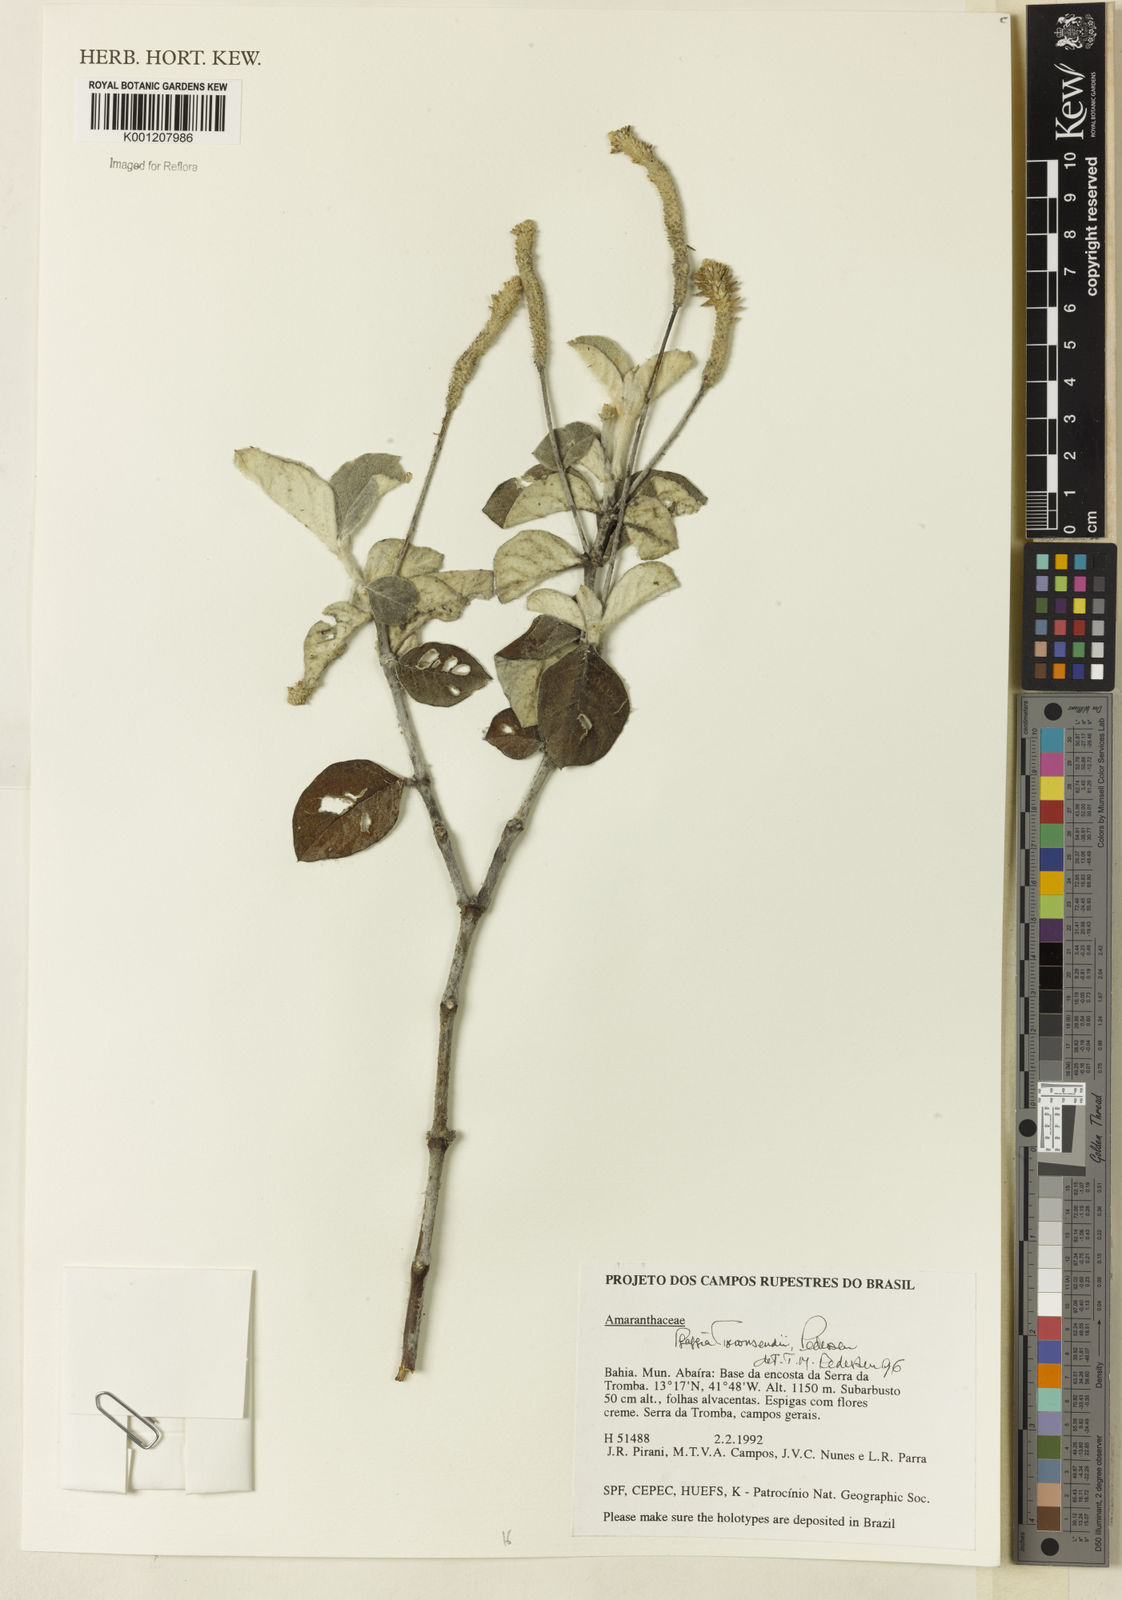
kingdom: Plantae
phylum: Tracheophyta
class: Magnoliopsida
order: Caryophyllales
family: Amaranthaceae
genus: Pfaffia
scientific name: Pfaffia townsendii
